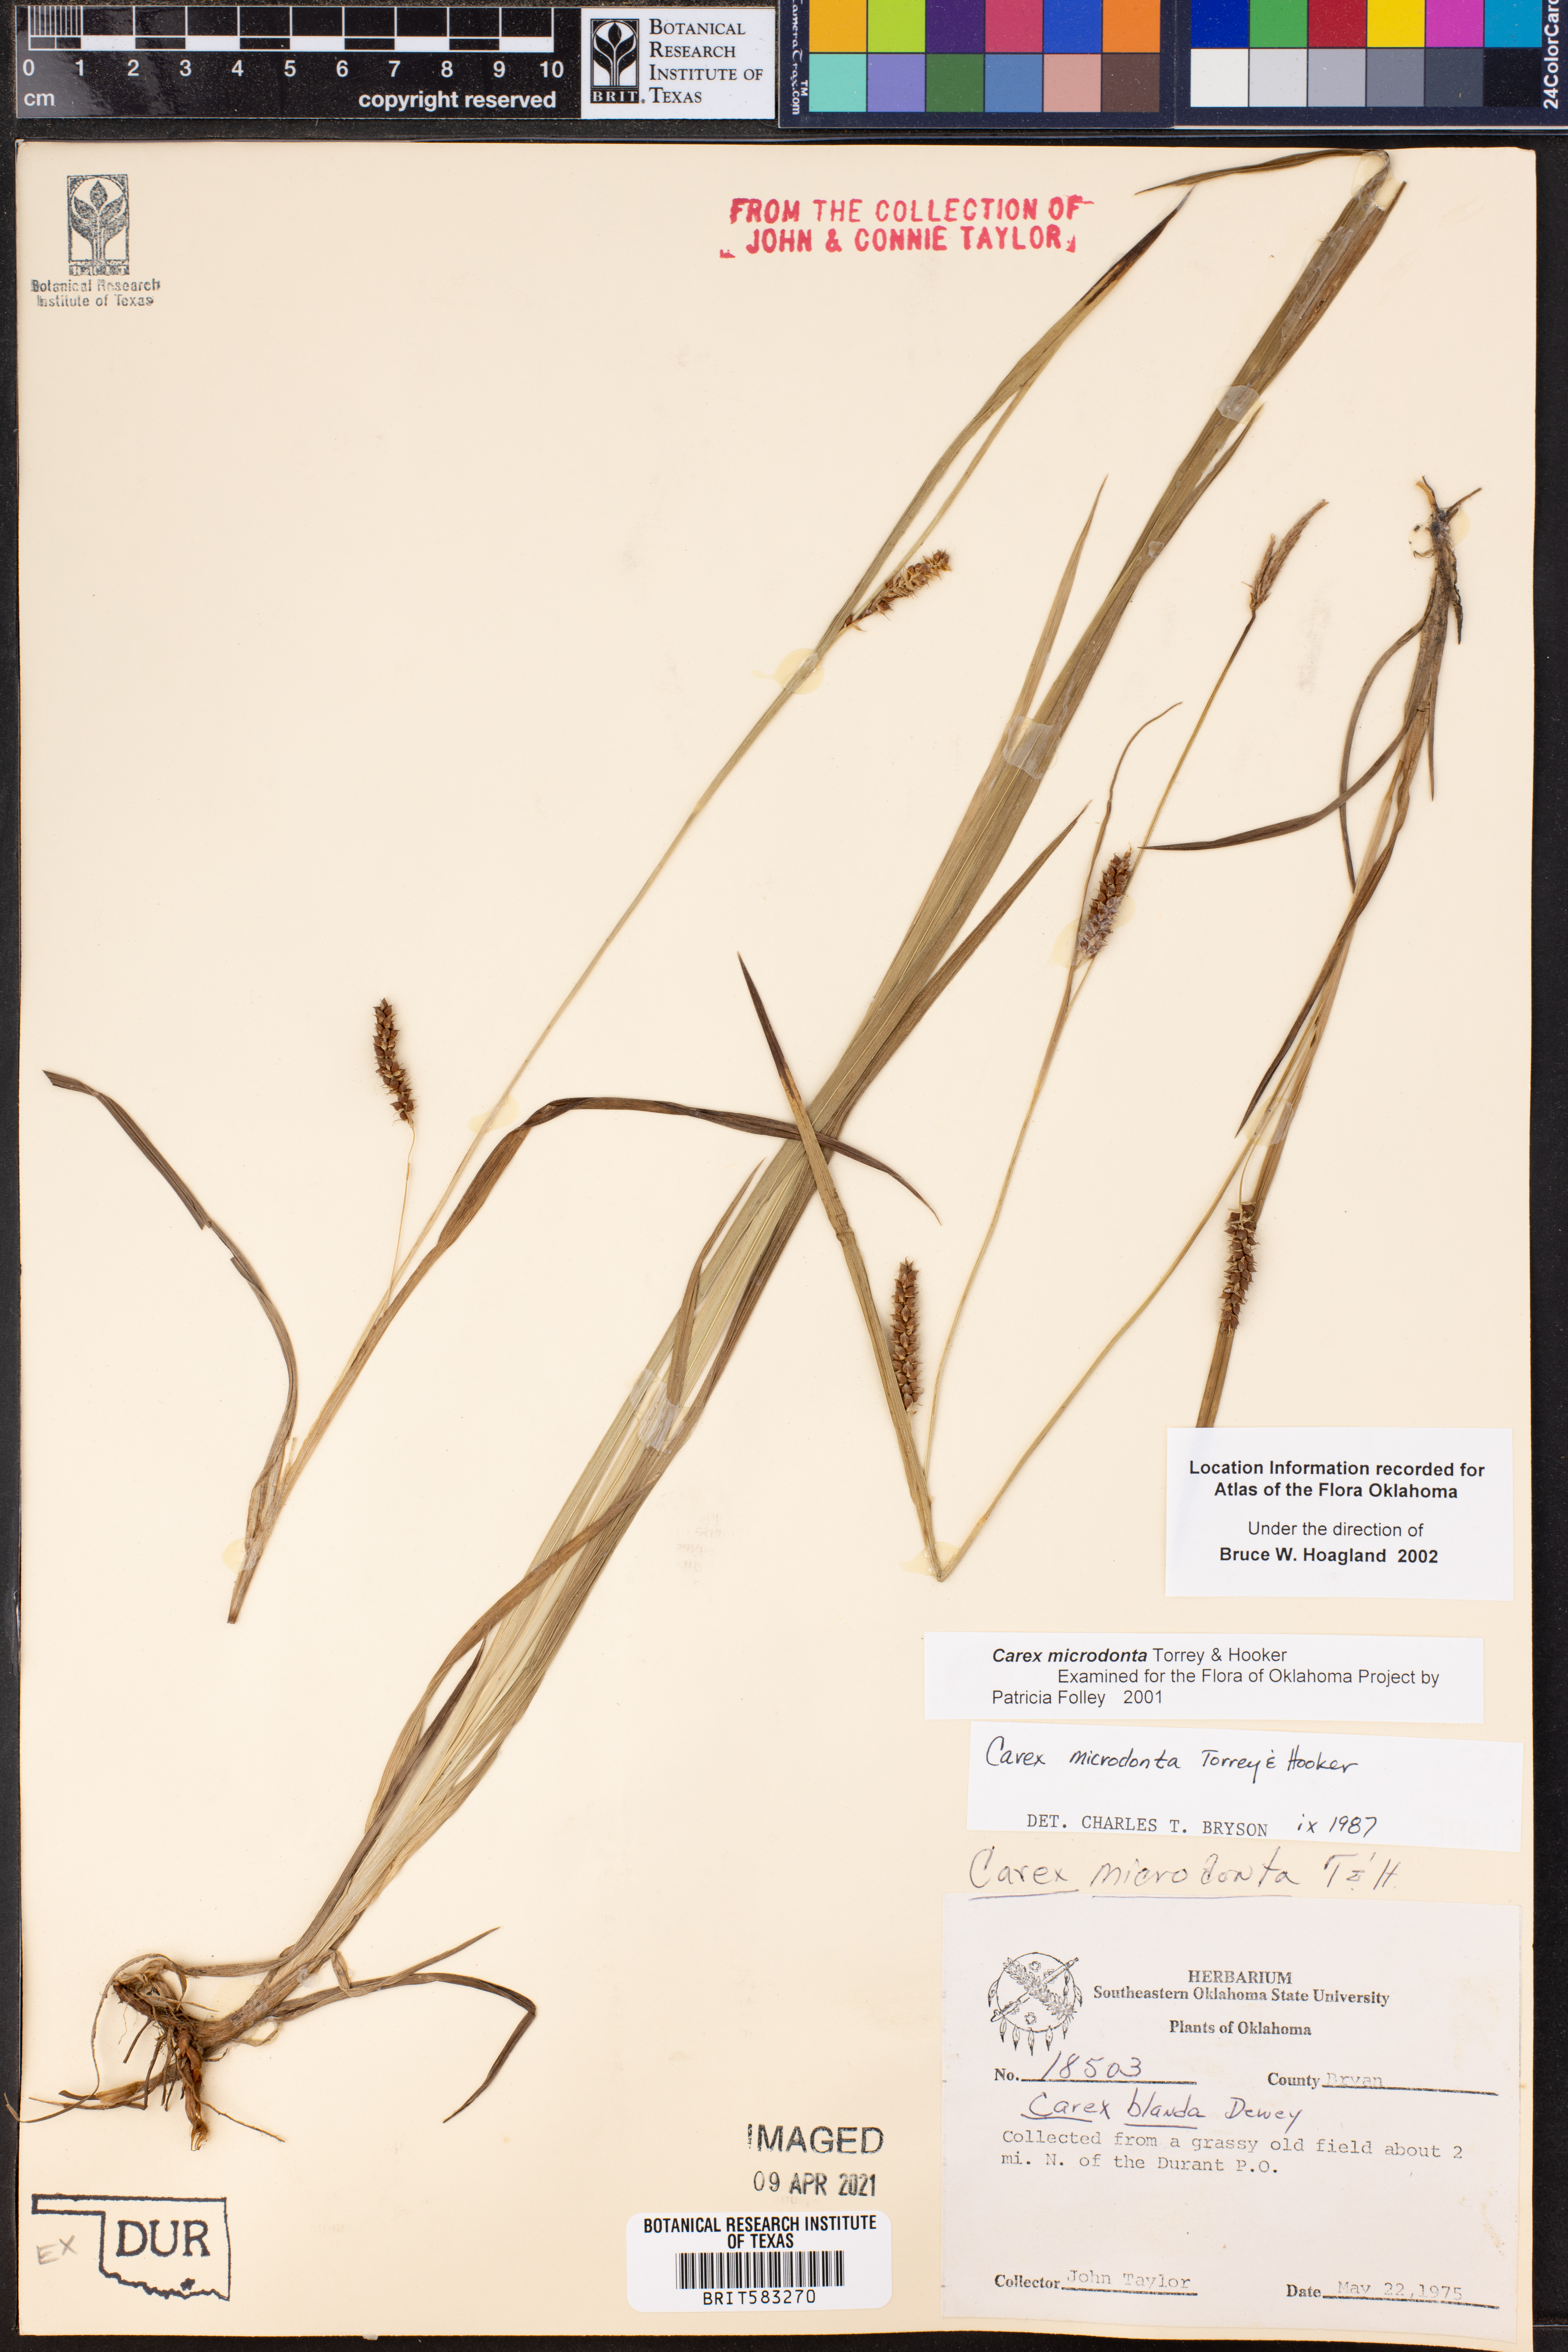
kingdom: Plantae
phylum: Tracheophyta
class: Liliopsida
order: Poales
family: Cyperaceae
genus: Carex
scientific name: Carex microdonta
